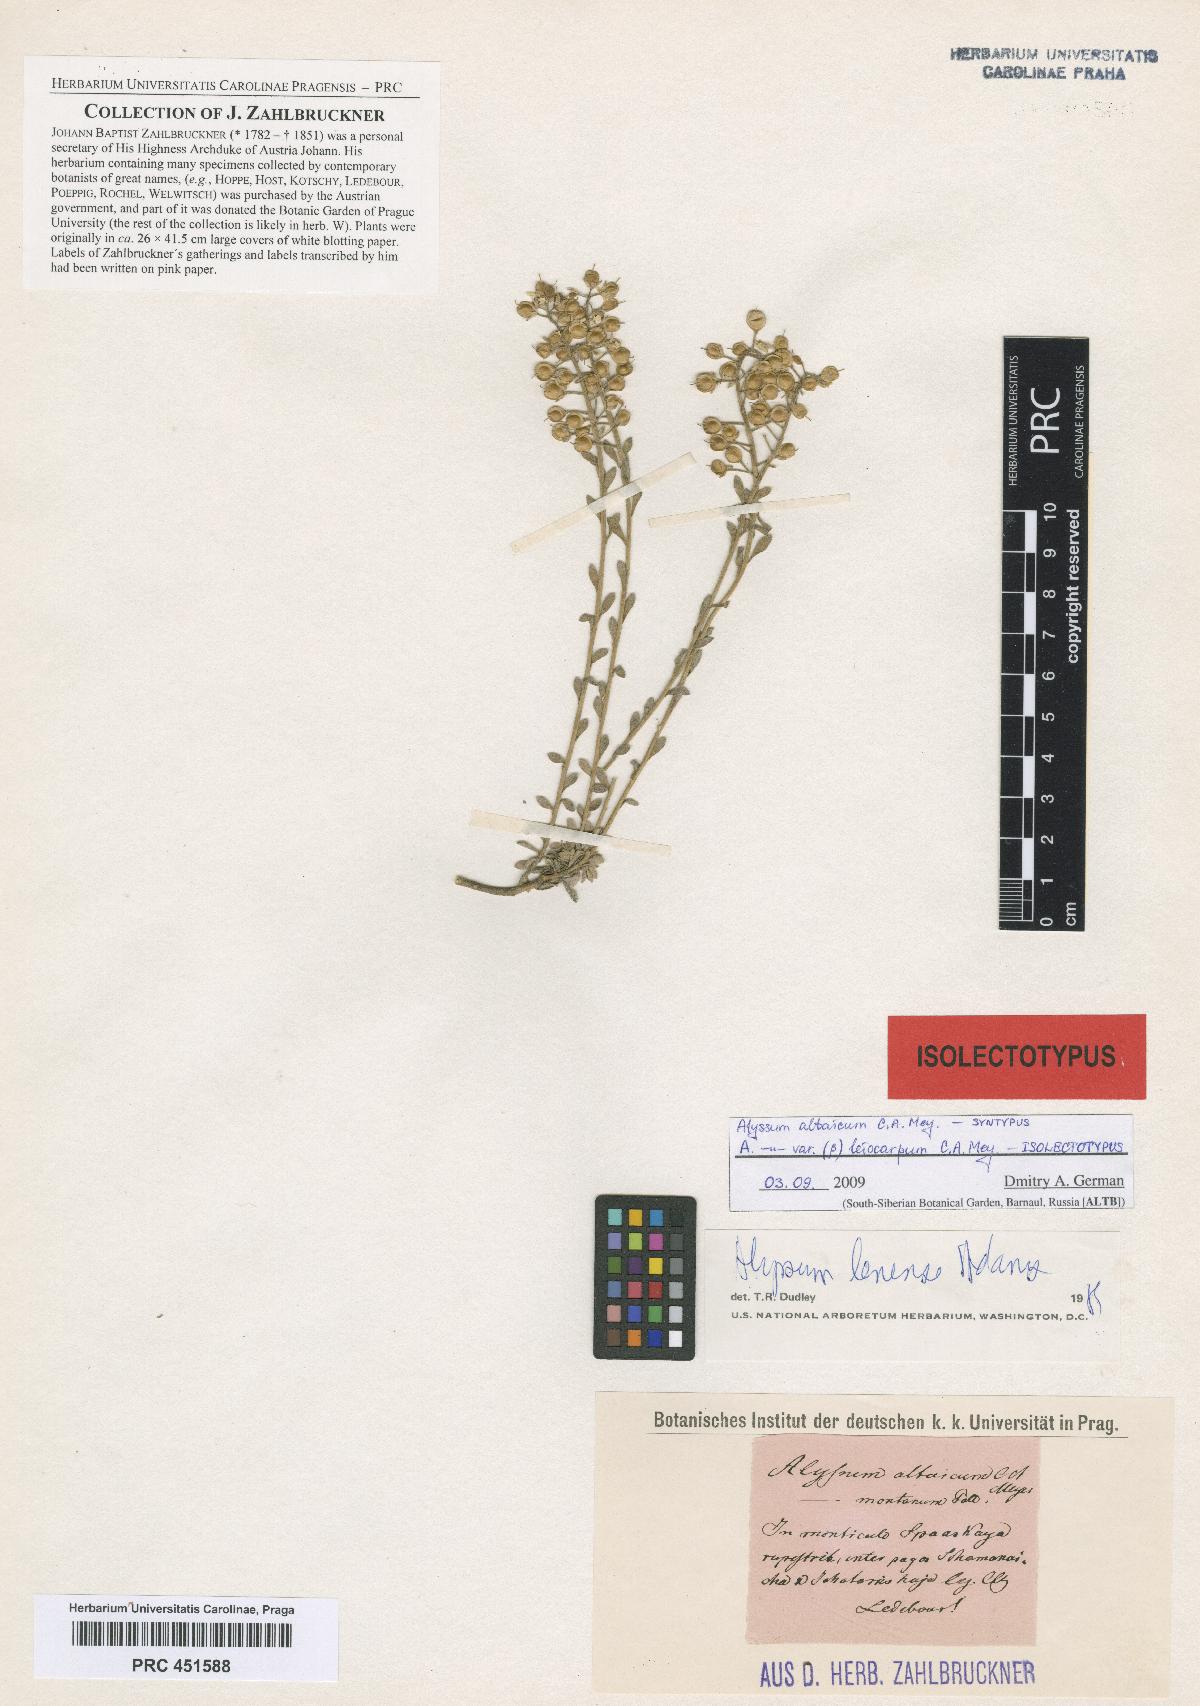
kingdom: Plantae
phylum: Tracheophyta
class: Magnoliopsida
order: Brassicales
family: Brassicaceae
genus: Alyssum
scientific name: Alyssum lenense
